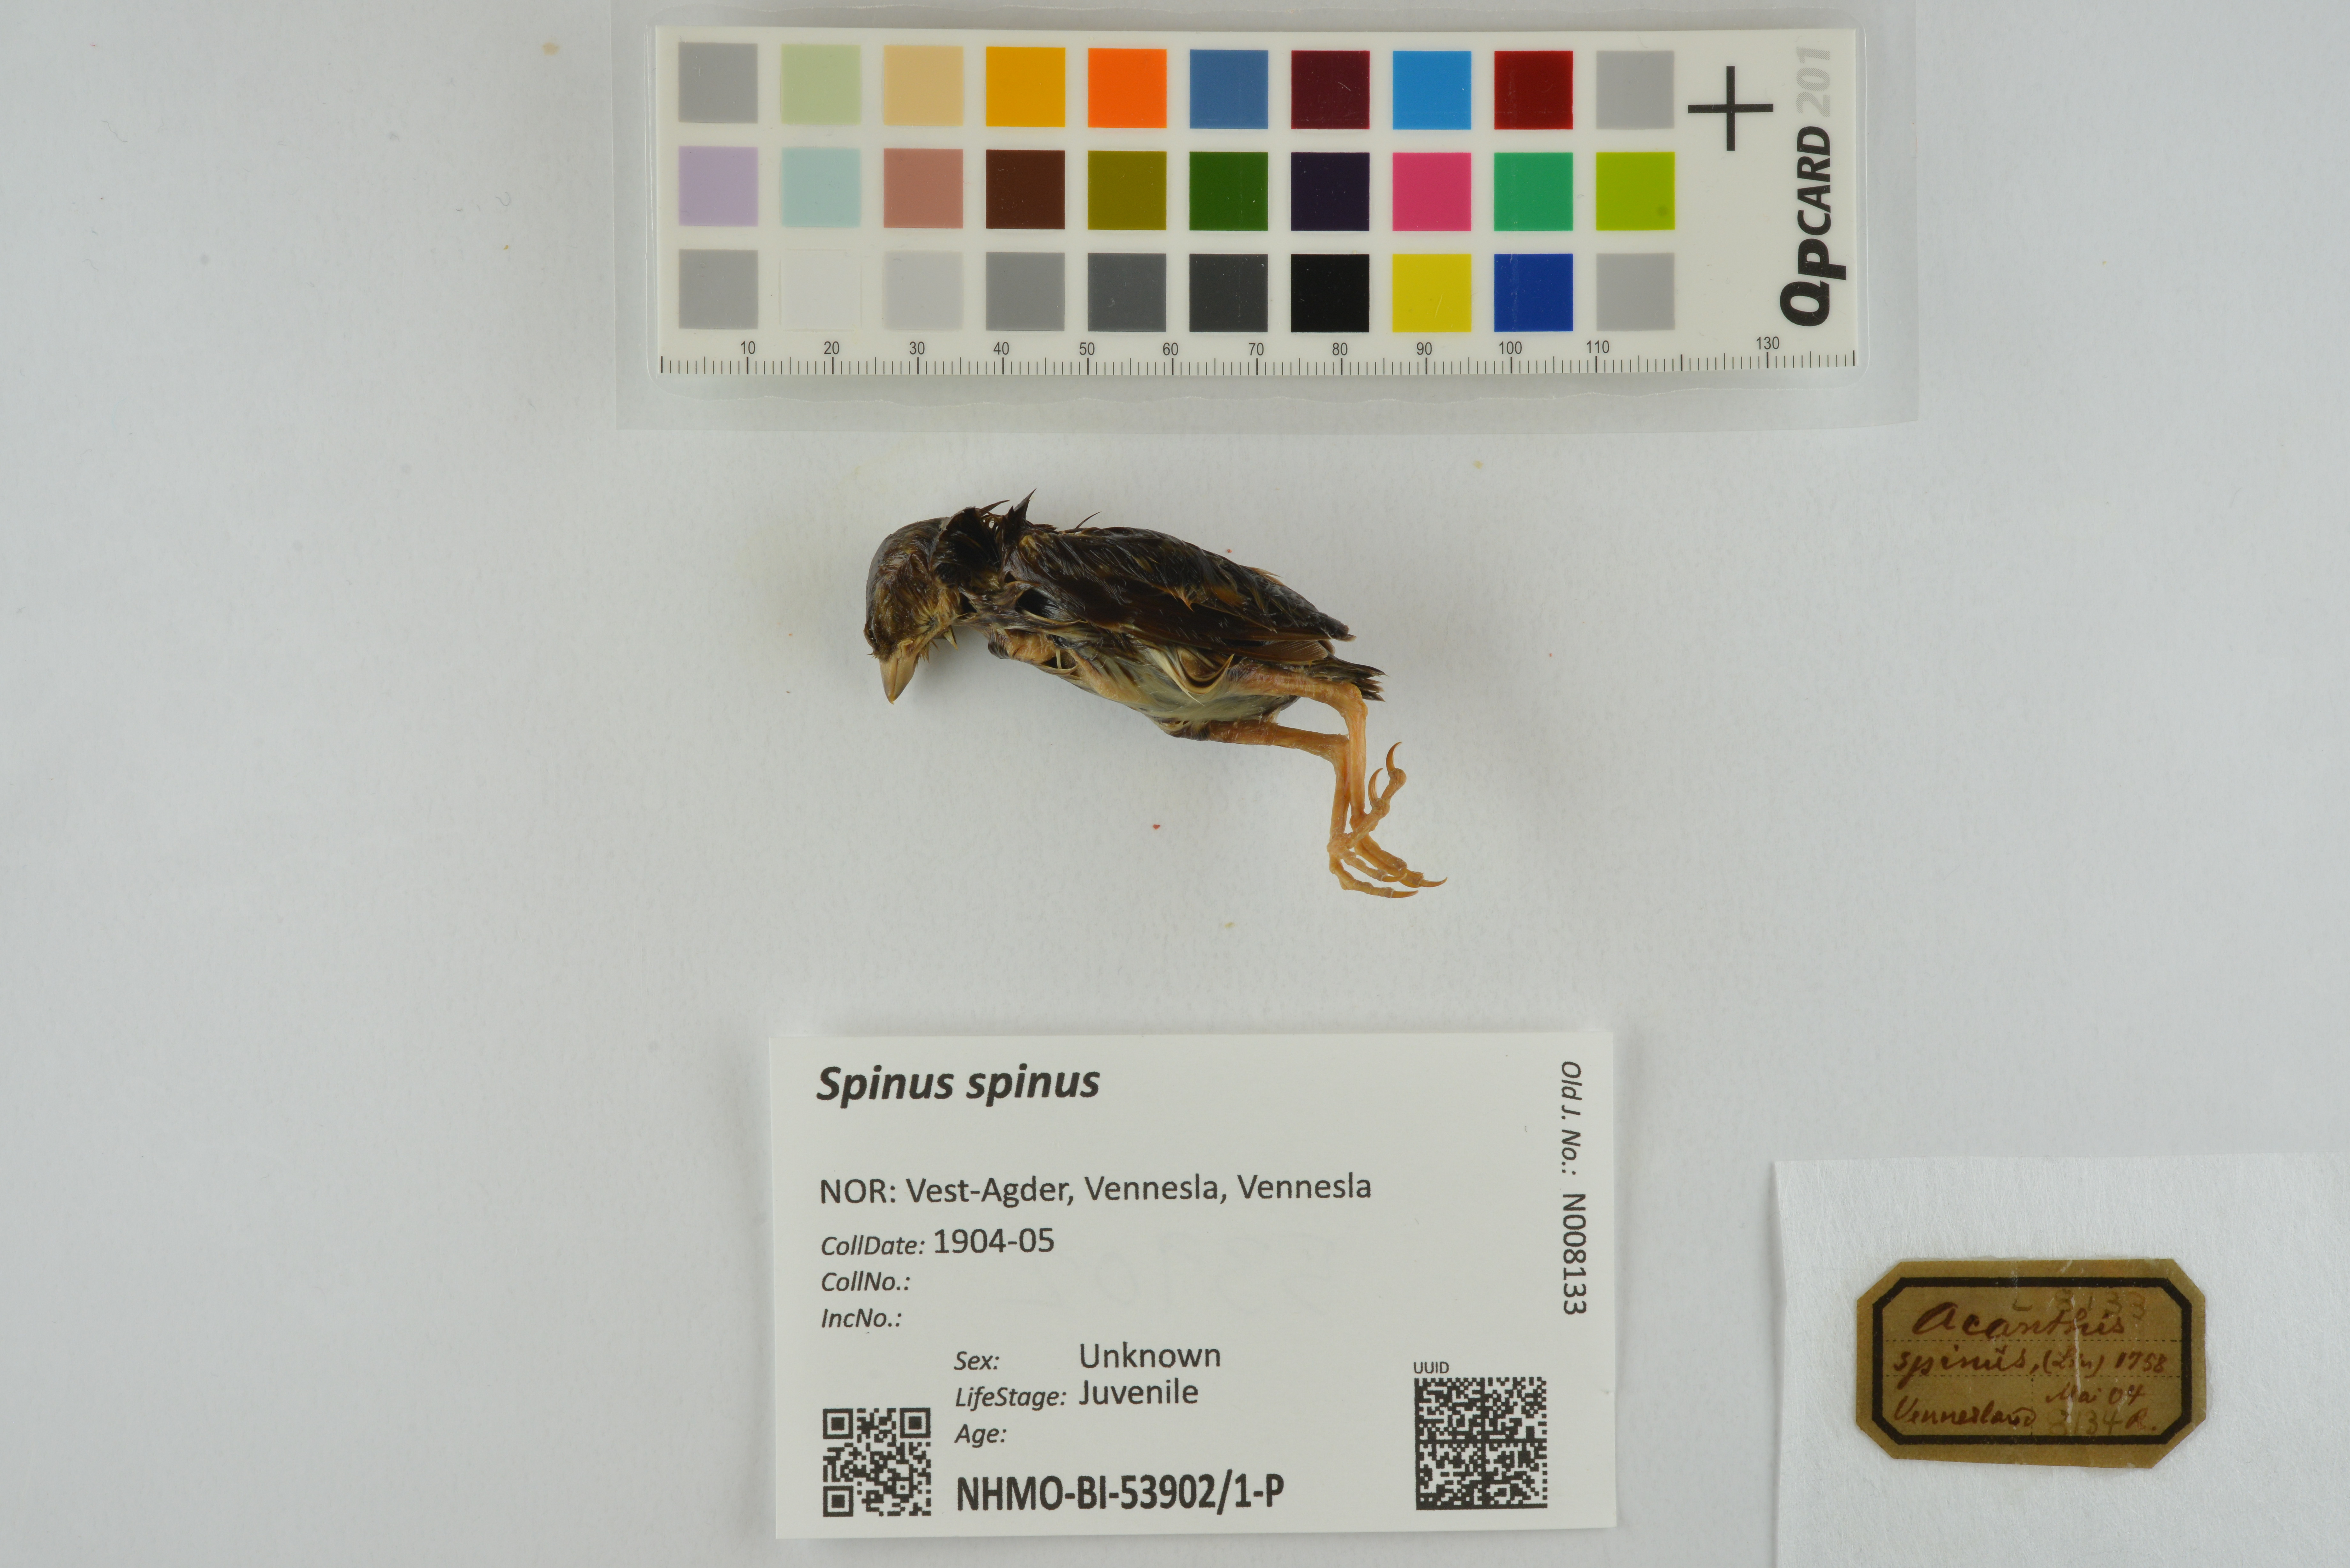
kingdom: Animalia
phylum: Chordata
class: Aves
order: Passeriformes
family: Fringillidae
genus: Spinus
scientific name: Spinus spinus
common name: Eurasian siskin
